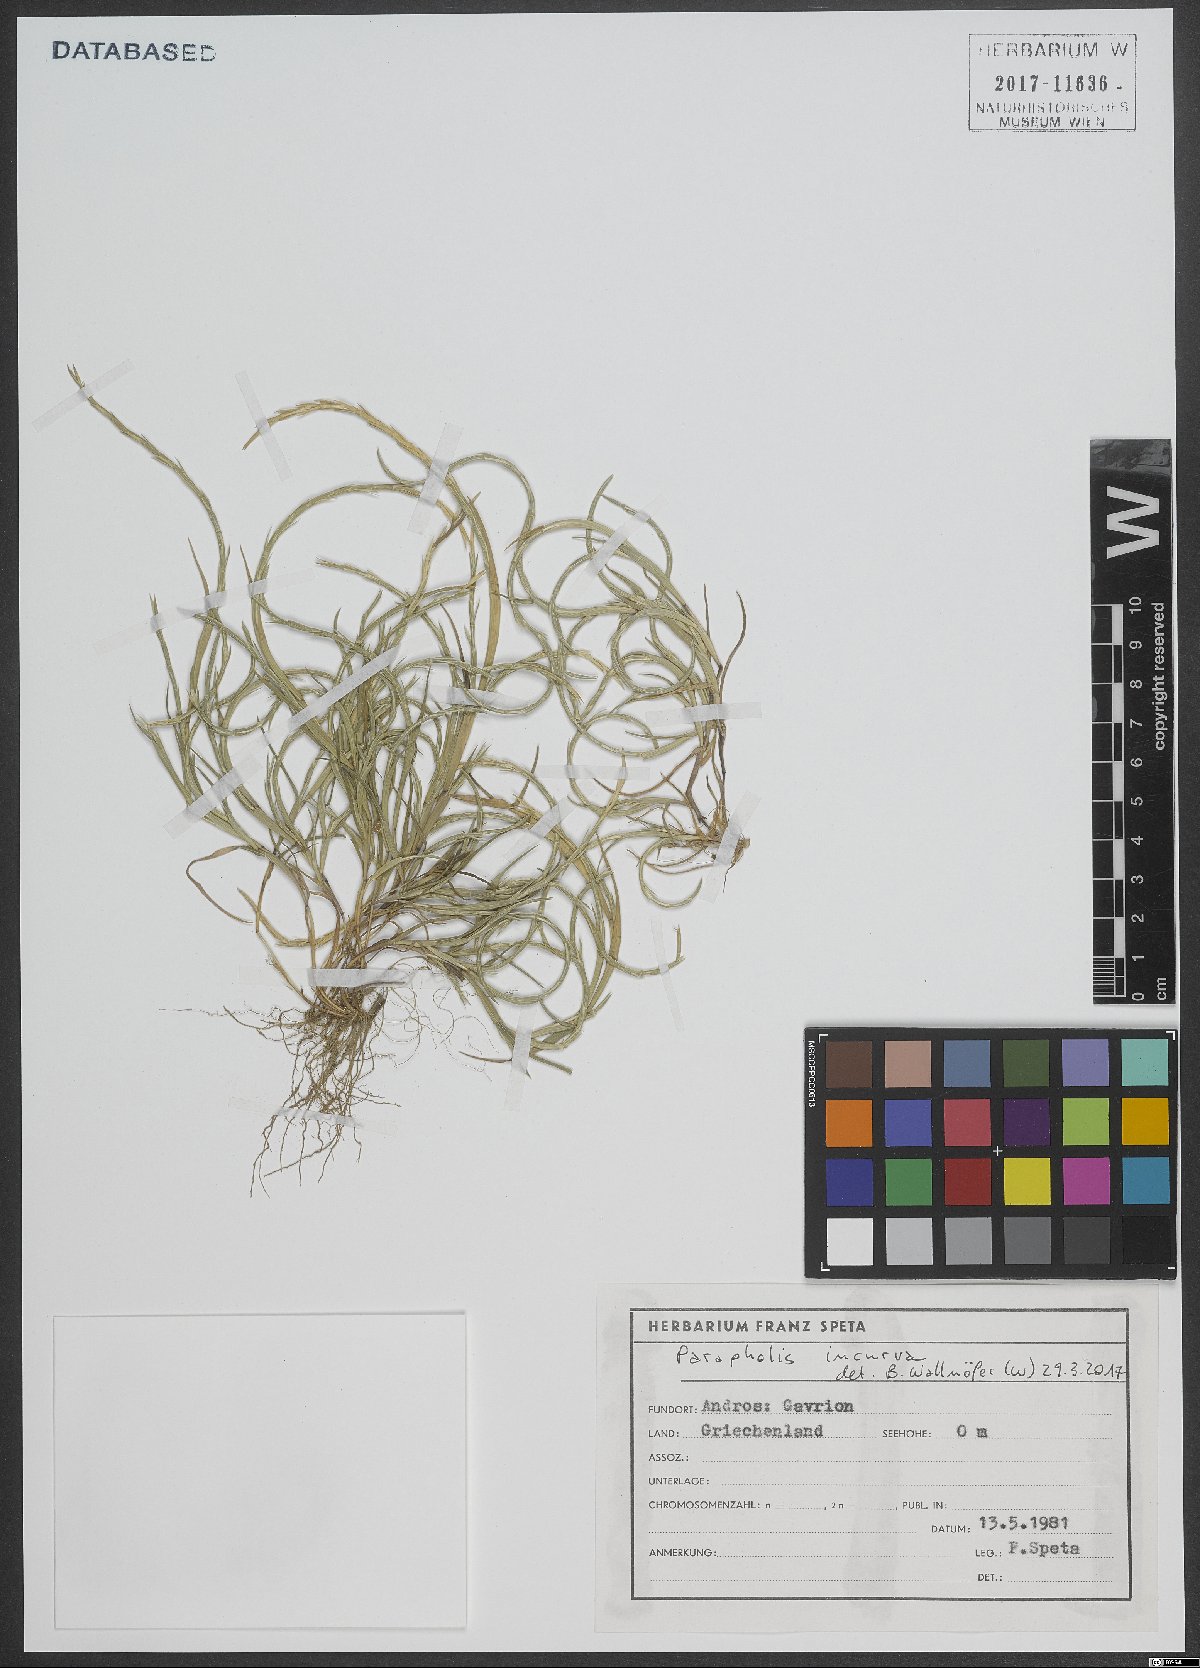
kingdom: Plantae
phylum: Tracheophyta
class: Liliopsida
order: Poales
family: Poaceae
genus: Parapholis
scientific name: Parapholis incurva
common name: Curved sicklegrass
